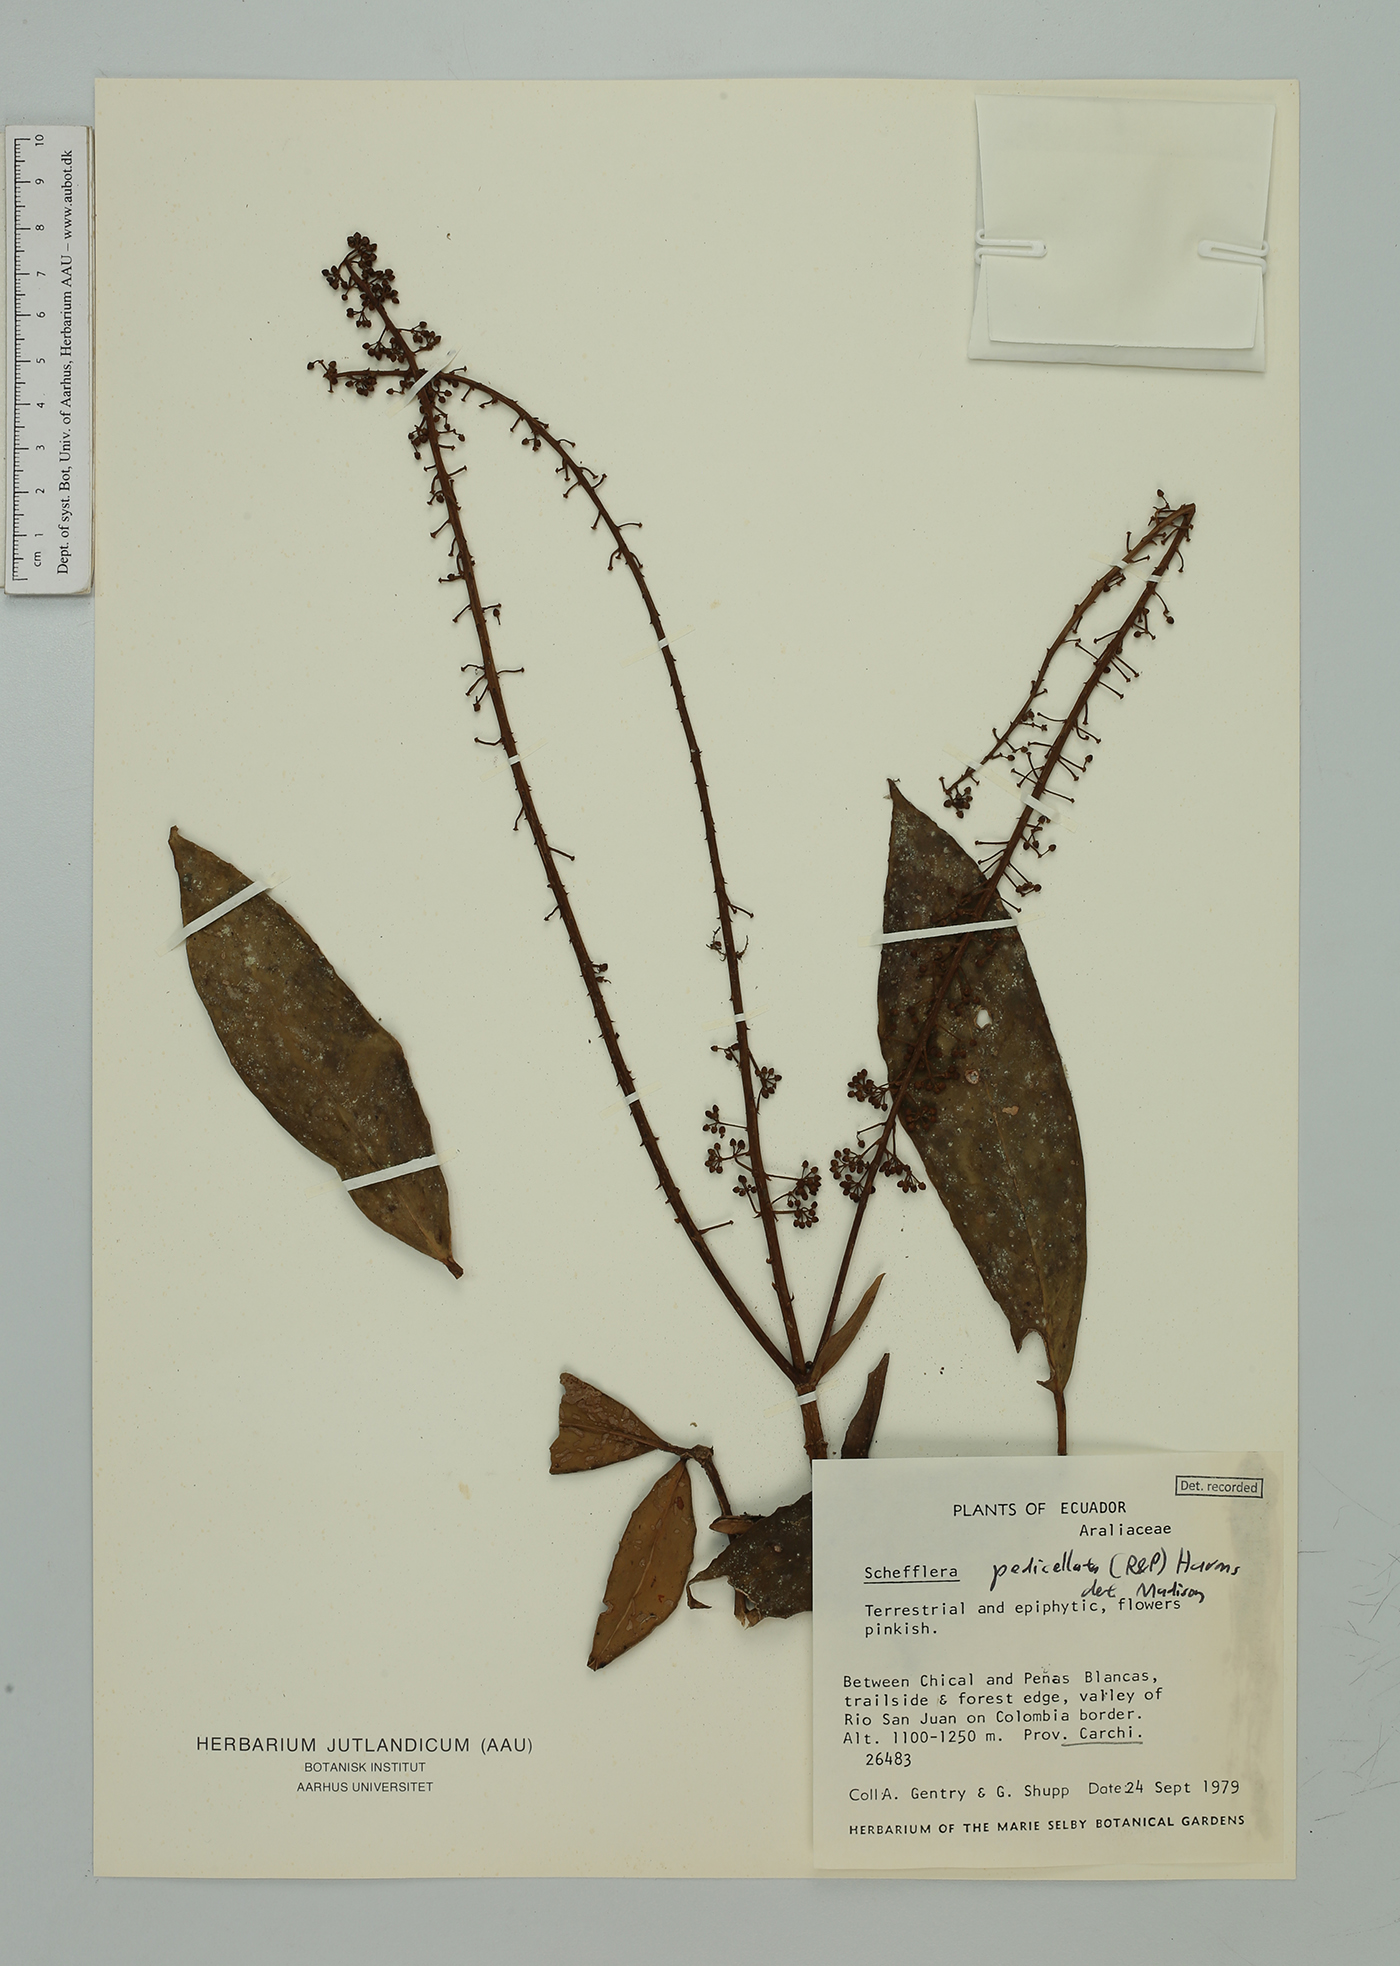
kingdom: Plantae
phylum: Tracheophyta
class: Magnoliopsida
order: Apiales
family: Araliaceae
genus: Sciodaphyllum
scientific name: Sciodaphyllum
